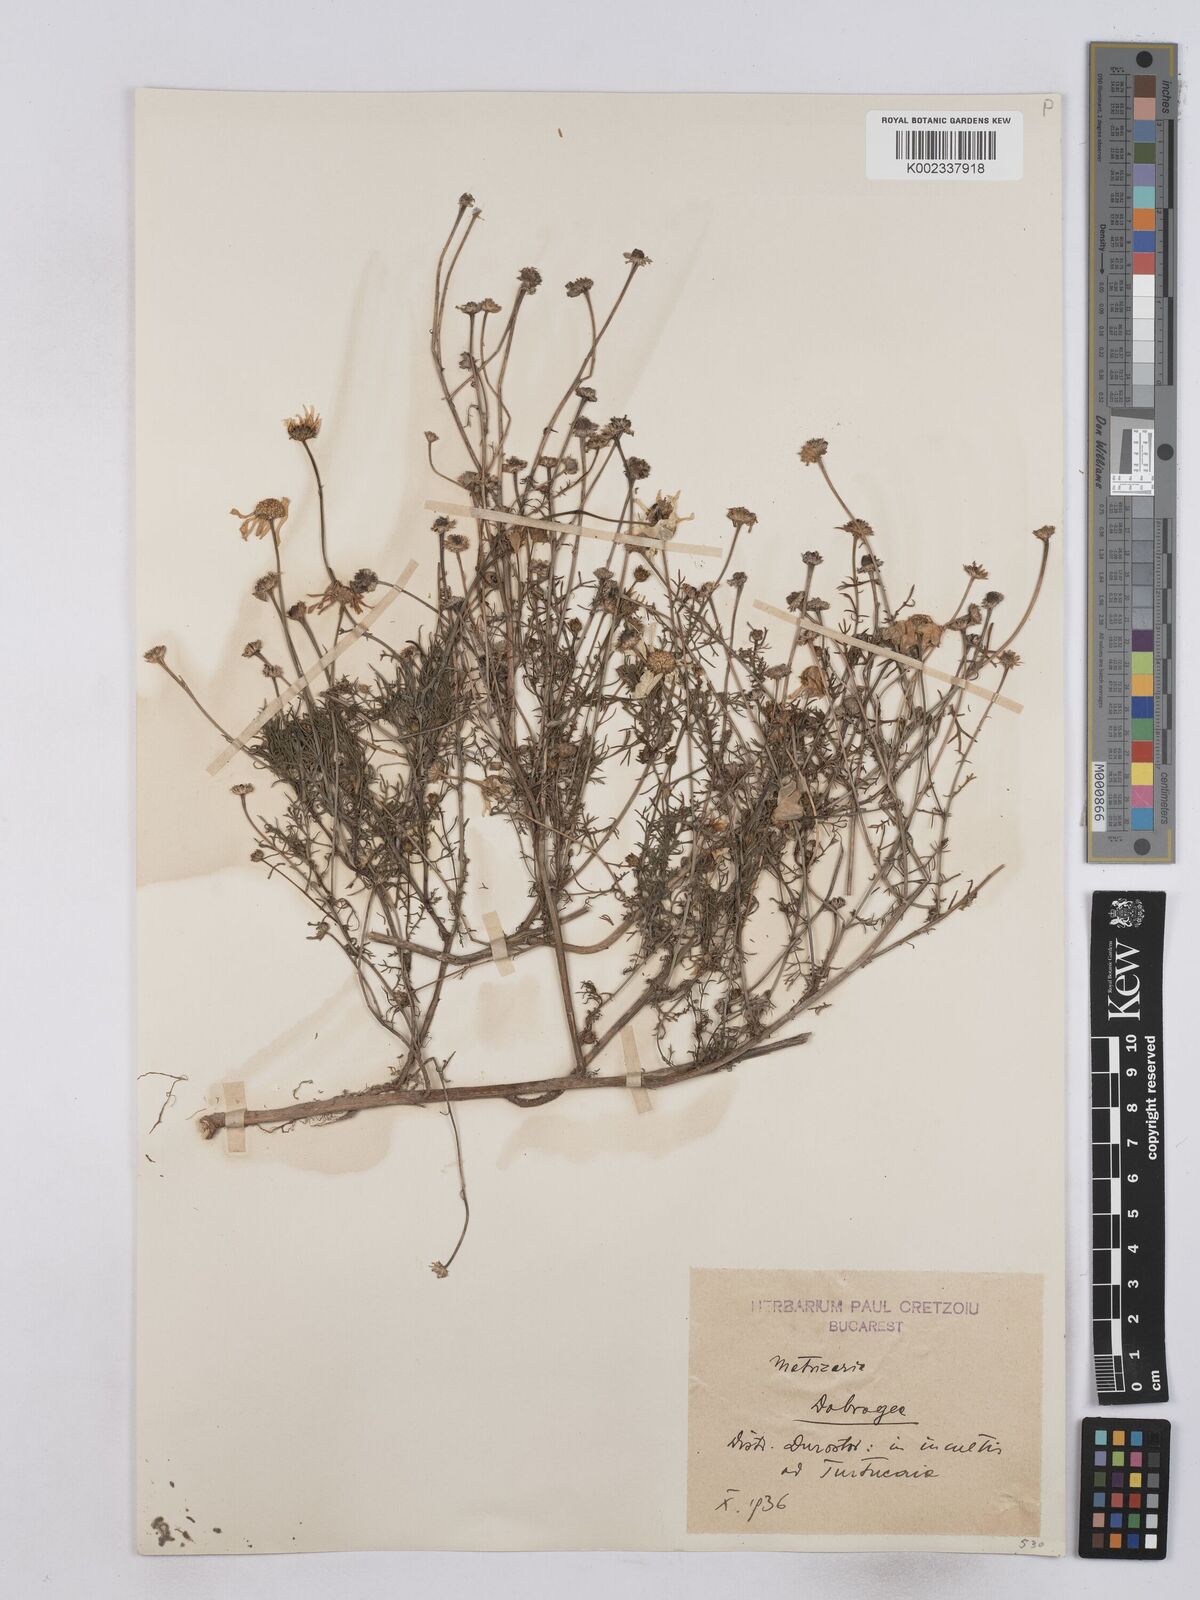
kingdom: Plantae
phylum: Tracheophyta
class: Magnoliopsida
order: Asterales
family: Asteraceae
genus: Matricaria
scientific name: Matricaria discoidea
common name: Disc mayweed
